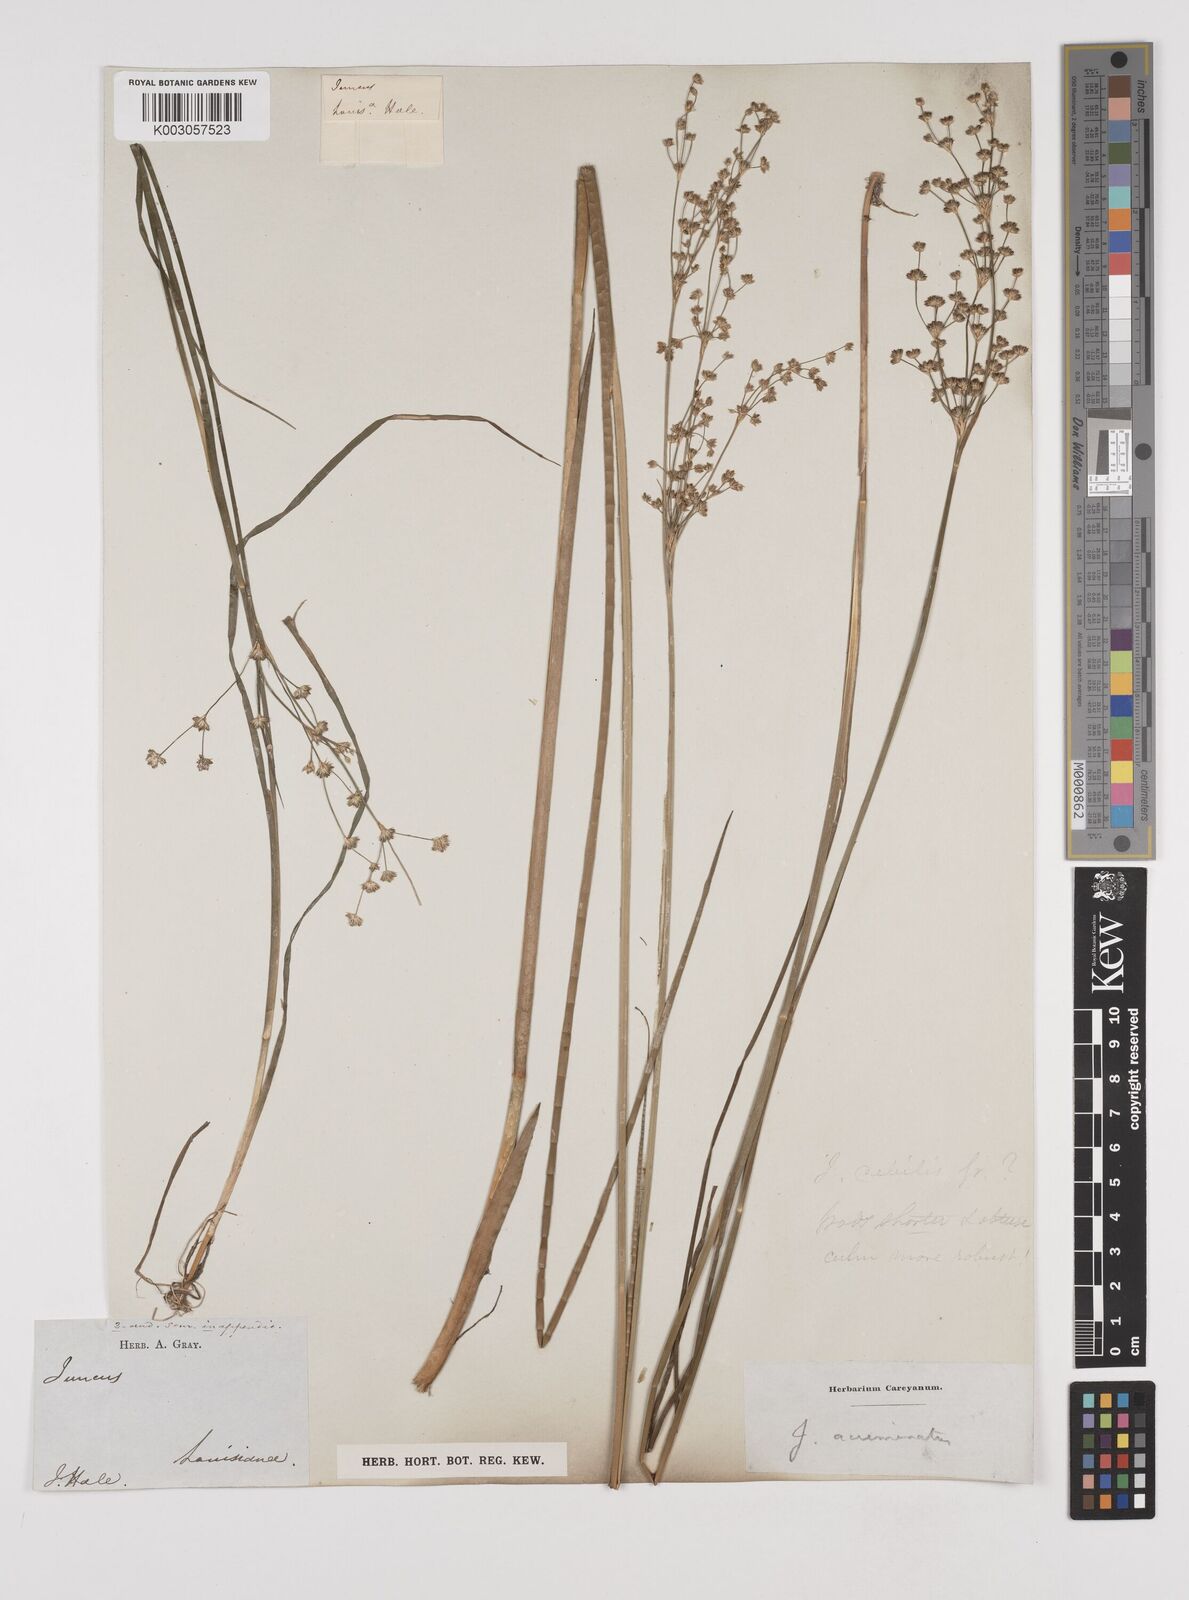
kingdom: Plantae
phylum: Tracheophyta
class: Liliopsida
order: Poales
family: Juncaceae
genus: Juncus
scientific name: Juncus debilis
